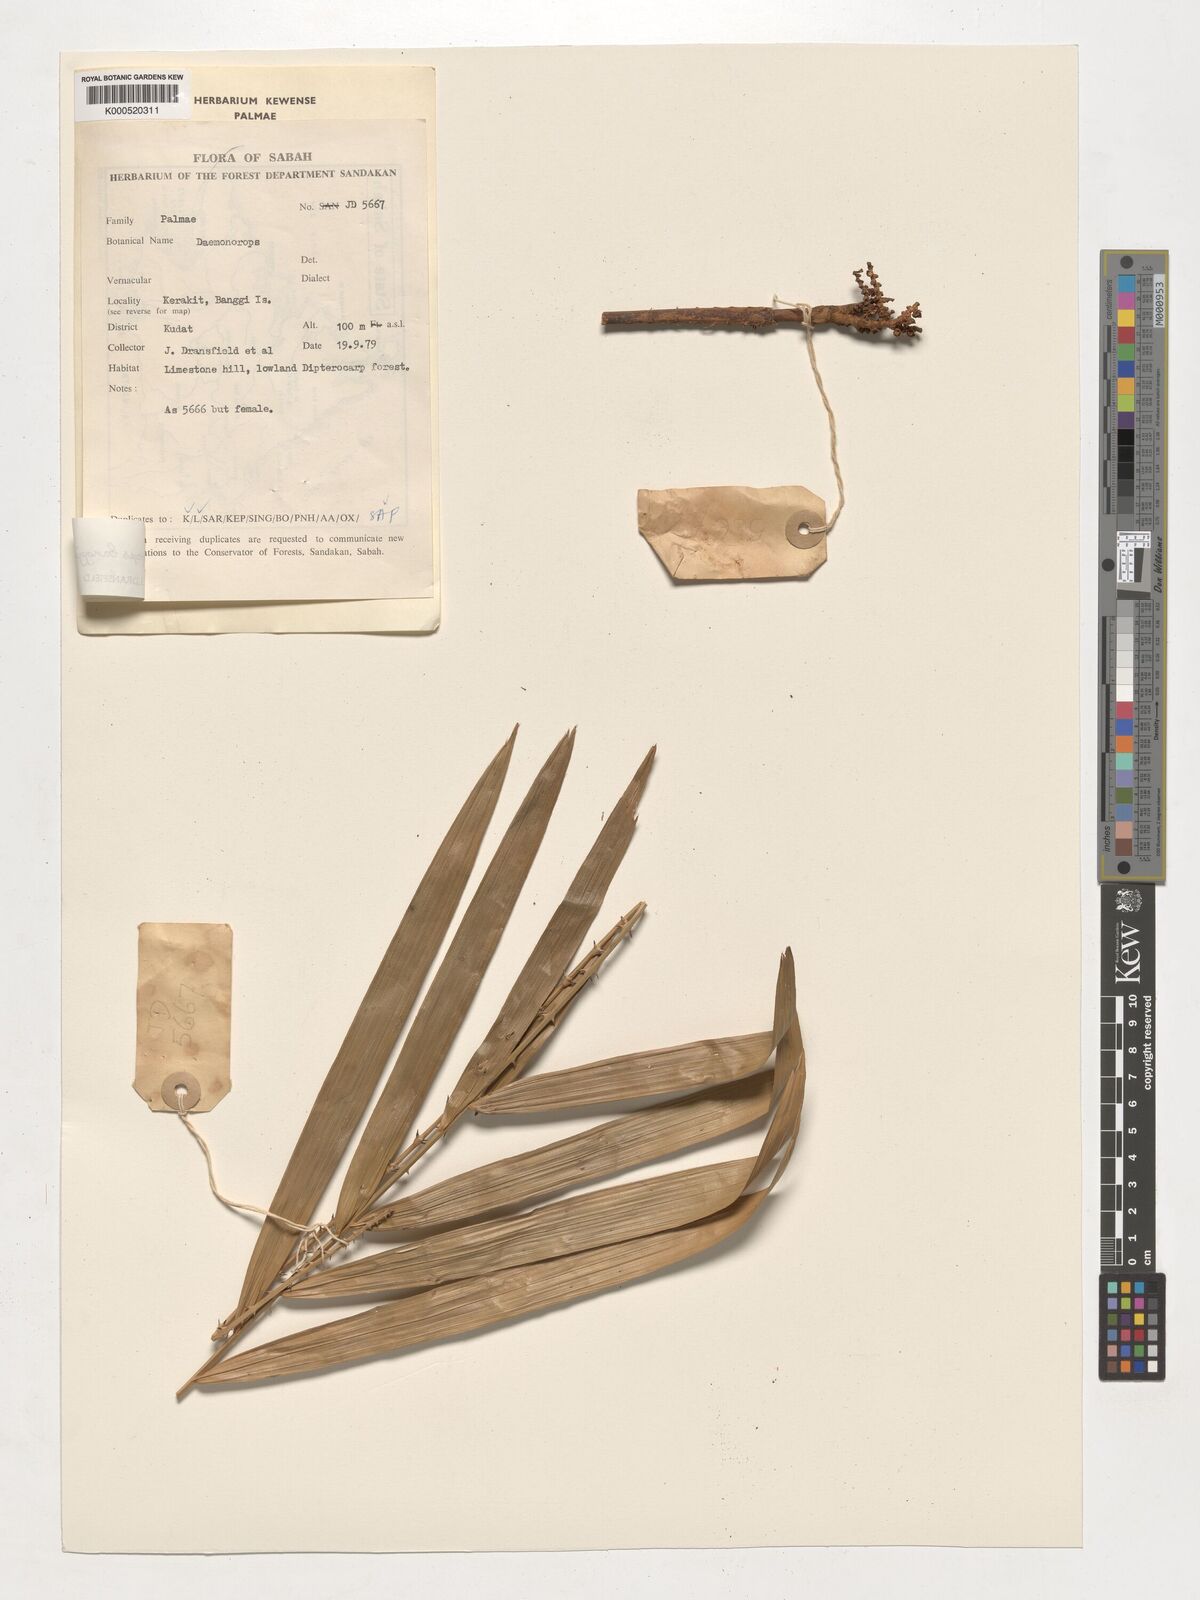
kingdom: Plantae
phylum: Tracheophyta
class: Liliopsida
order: Arecales
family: Arecaceae
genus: Calamus
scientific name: Calamus banggiensis
